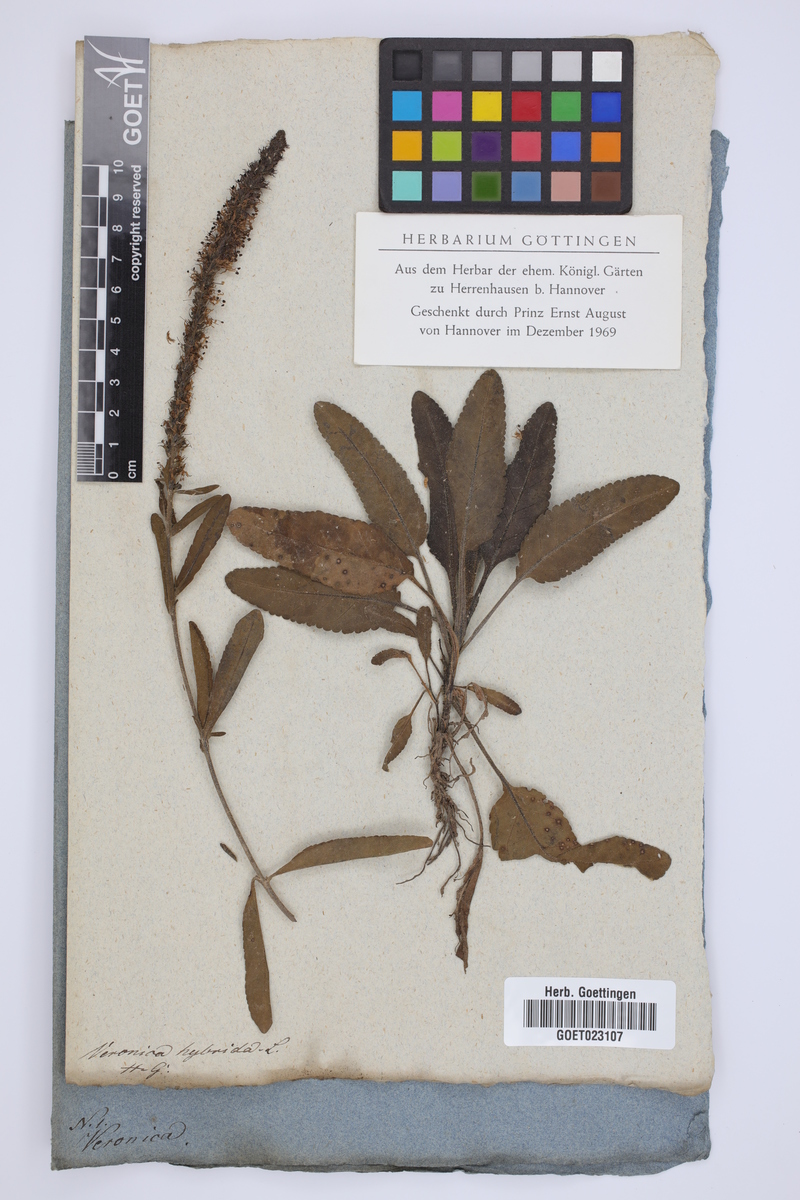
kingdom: Plantae
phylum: Tracheophyta
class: Magnoliopsida
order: Lamiales
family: Plantaginaceae
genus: Veronica
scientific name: Veronica spicata
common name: Spiked speedwell
